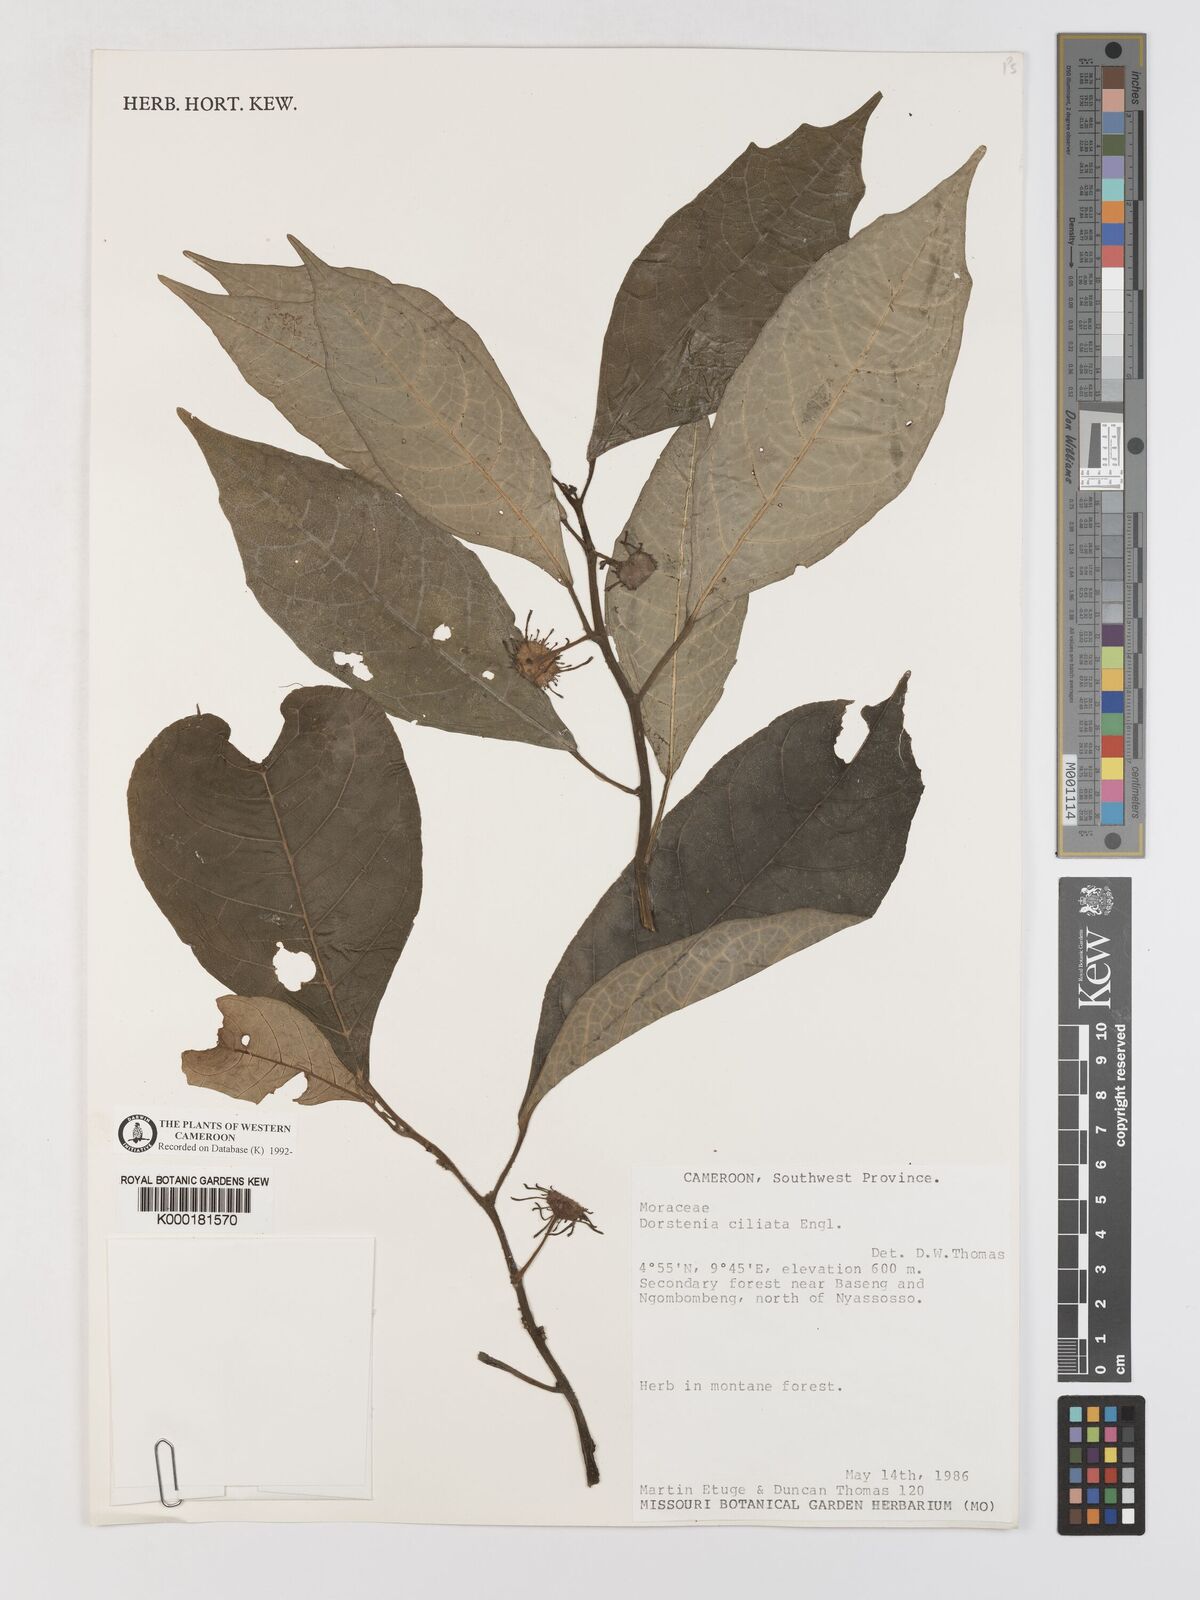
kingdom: Plantae
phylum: Tracheophyta
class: Magnoliopsida
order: Rosales
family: Moraceae
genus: Dorstenia
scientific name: Dorstenia ciliata
